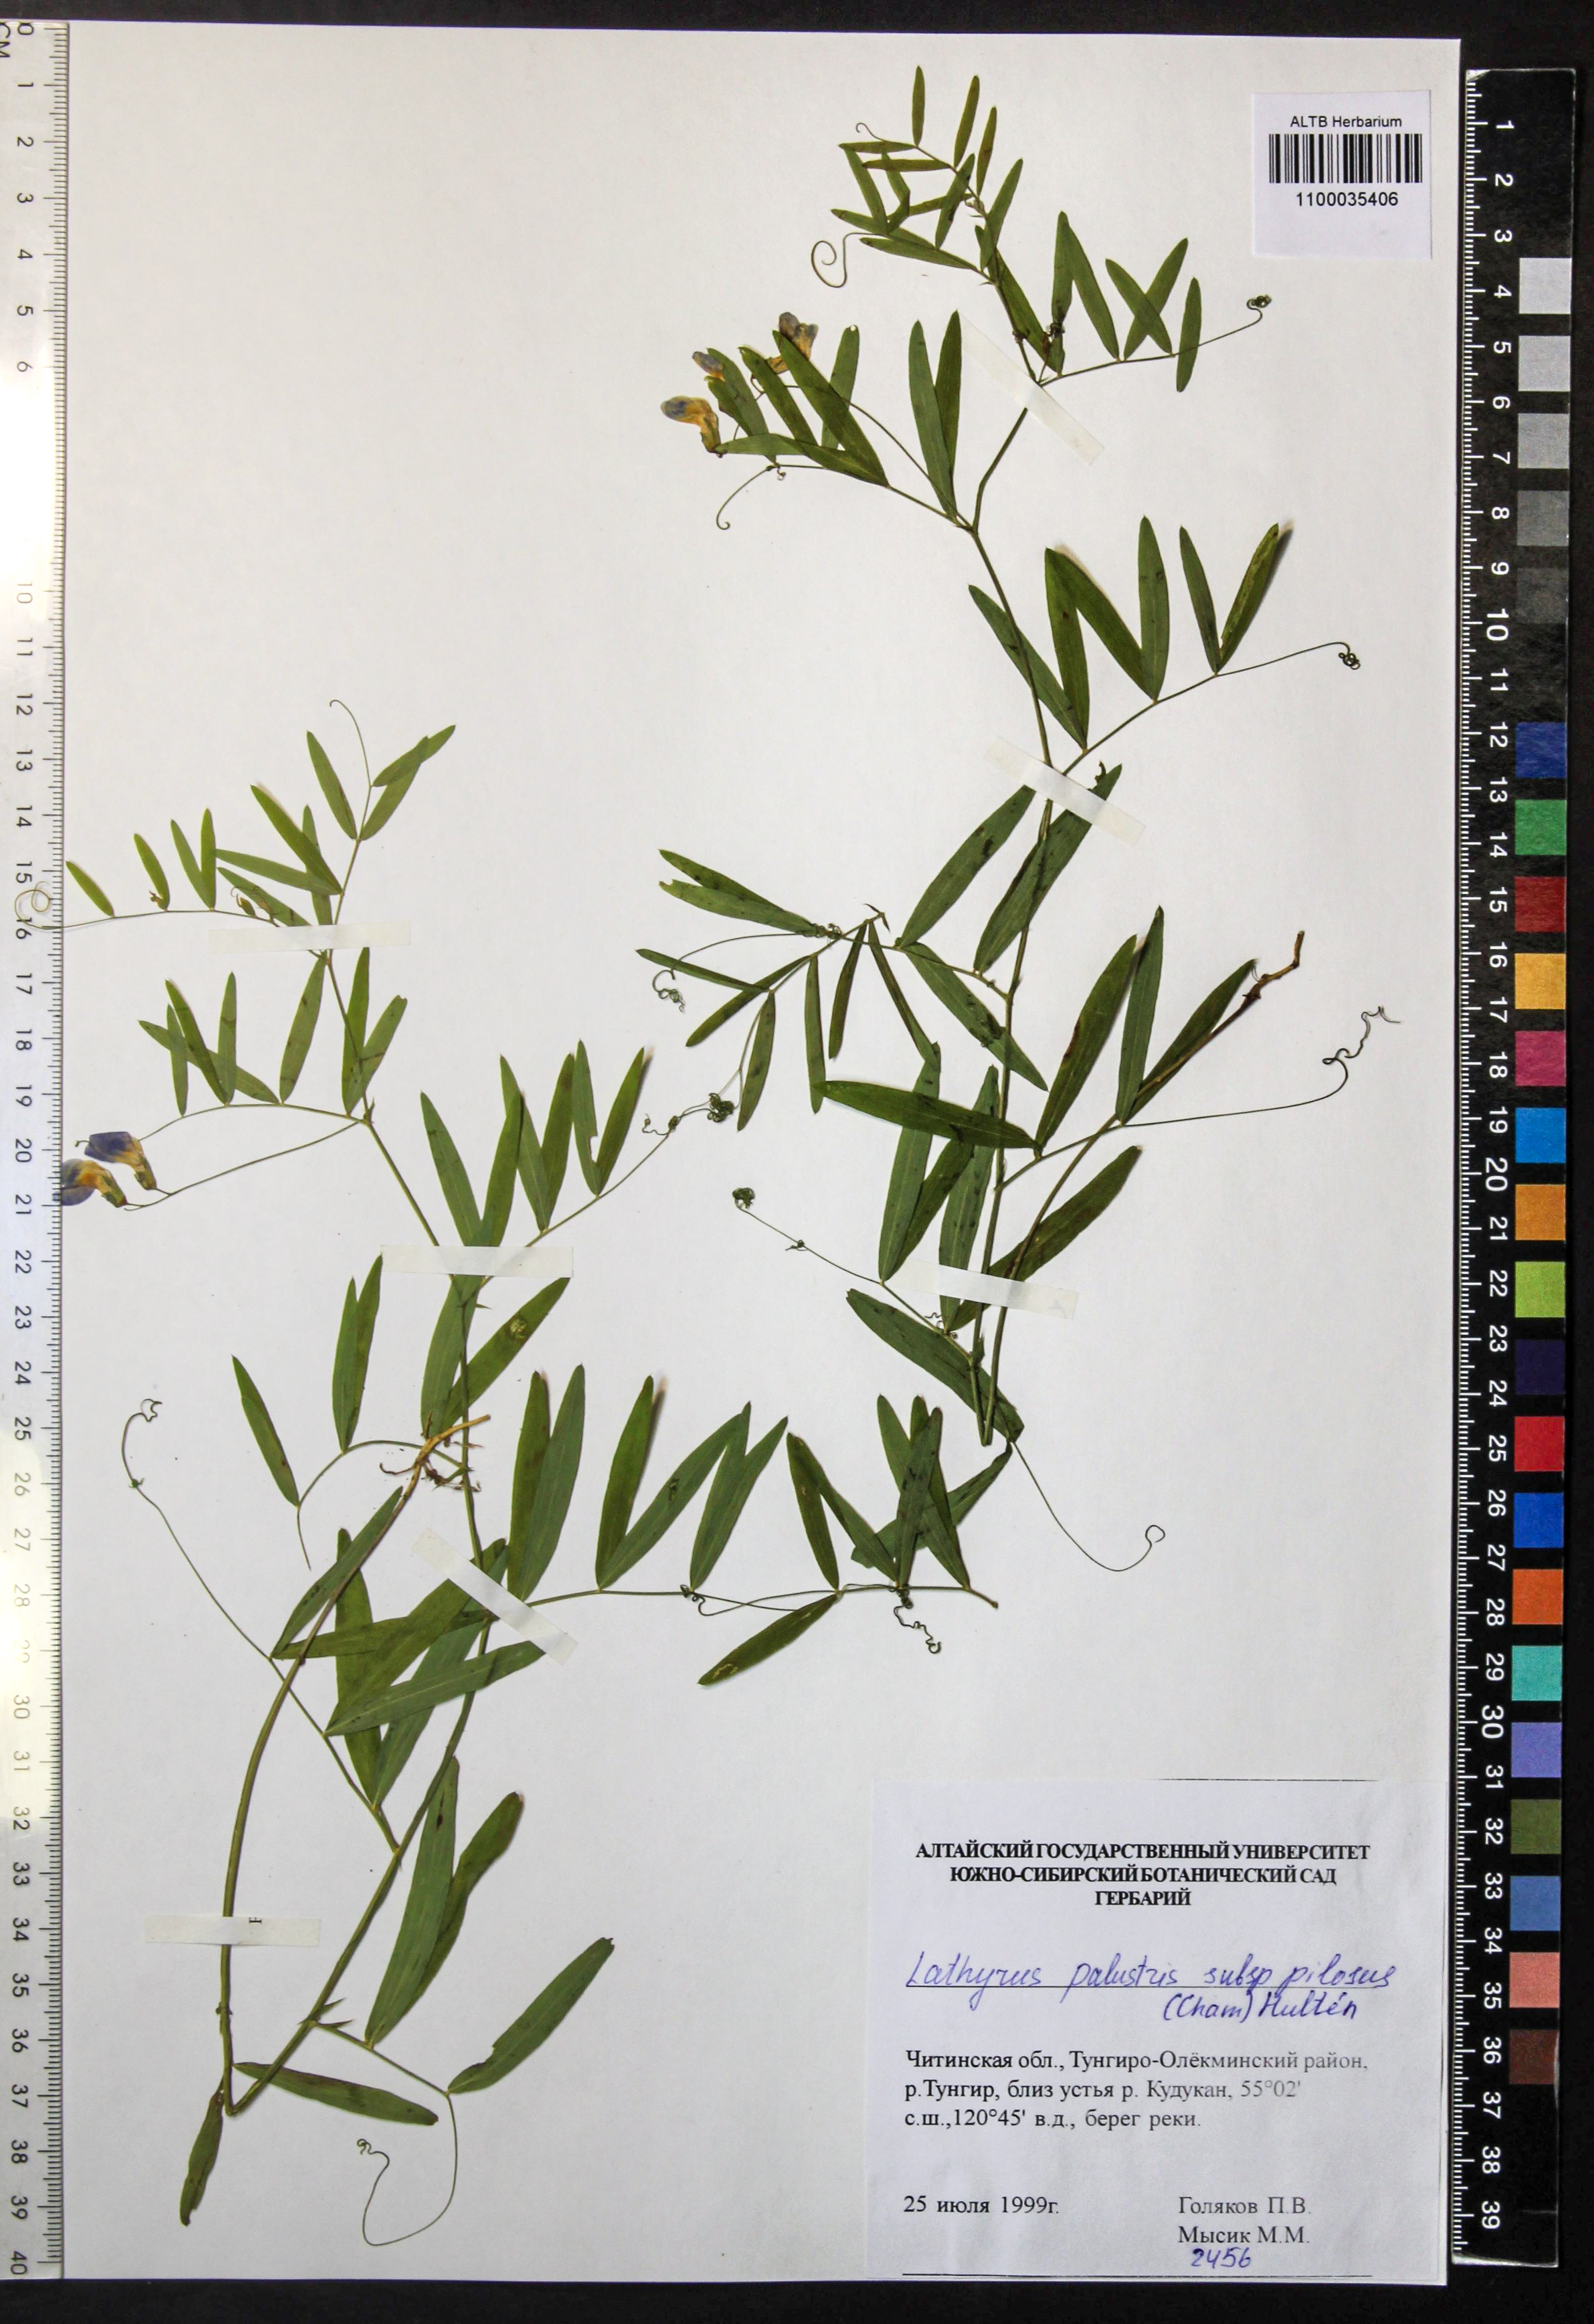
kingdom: Plantae
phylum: Tracheophyta
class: Magnoliopsida
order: Fabales
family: Fabaceae
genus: Lathyrus
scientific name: Lathyrus palustris
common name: Marsh pea
